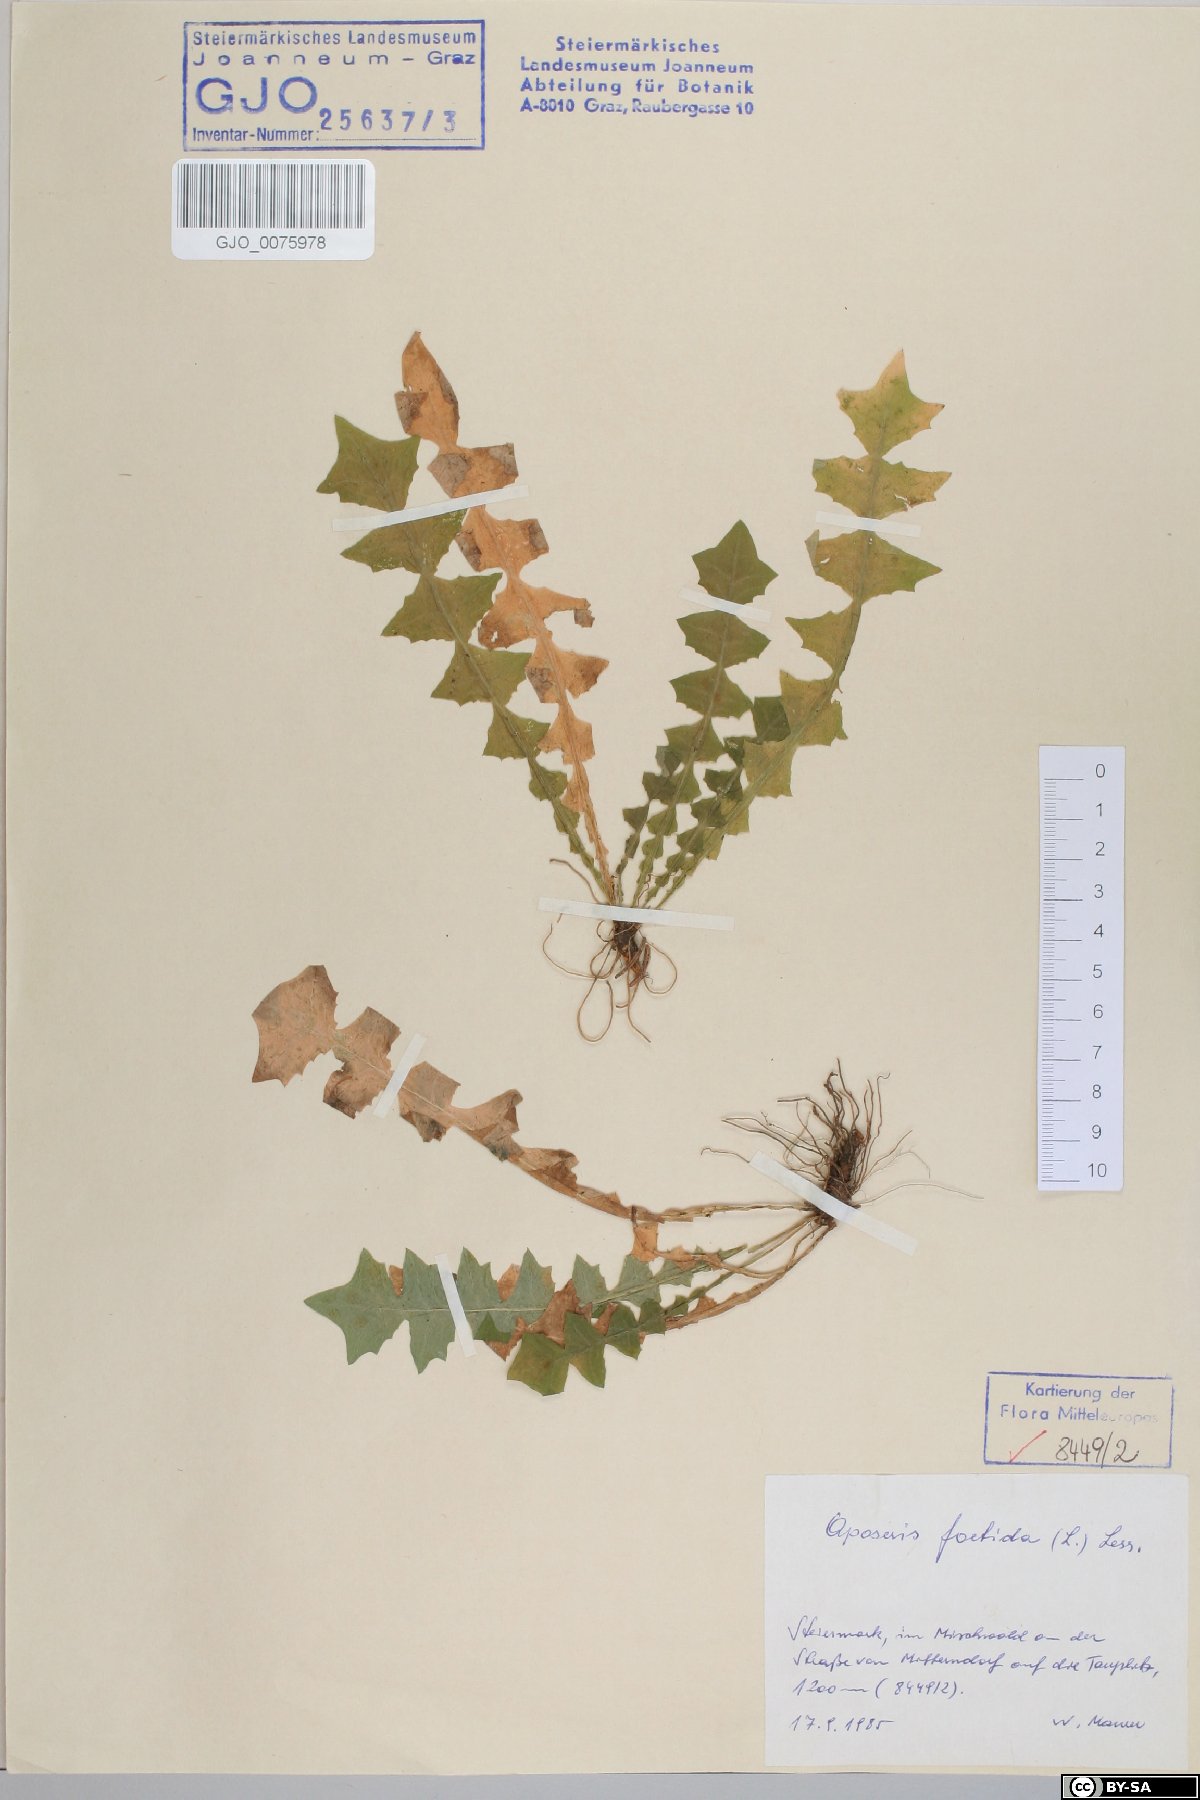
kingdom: Plantae
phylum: Tracheophyta
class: Magnoliopsida
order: Asterales
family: Asteraceae
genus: Aposeris
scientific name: Aposeris foetida
